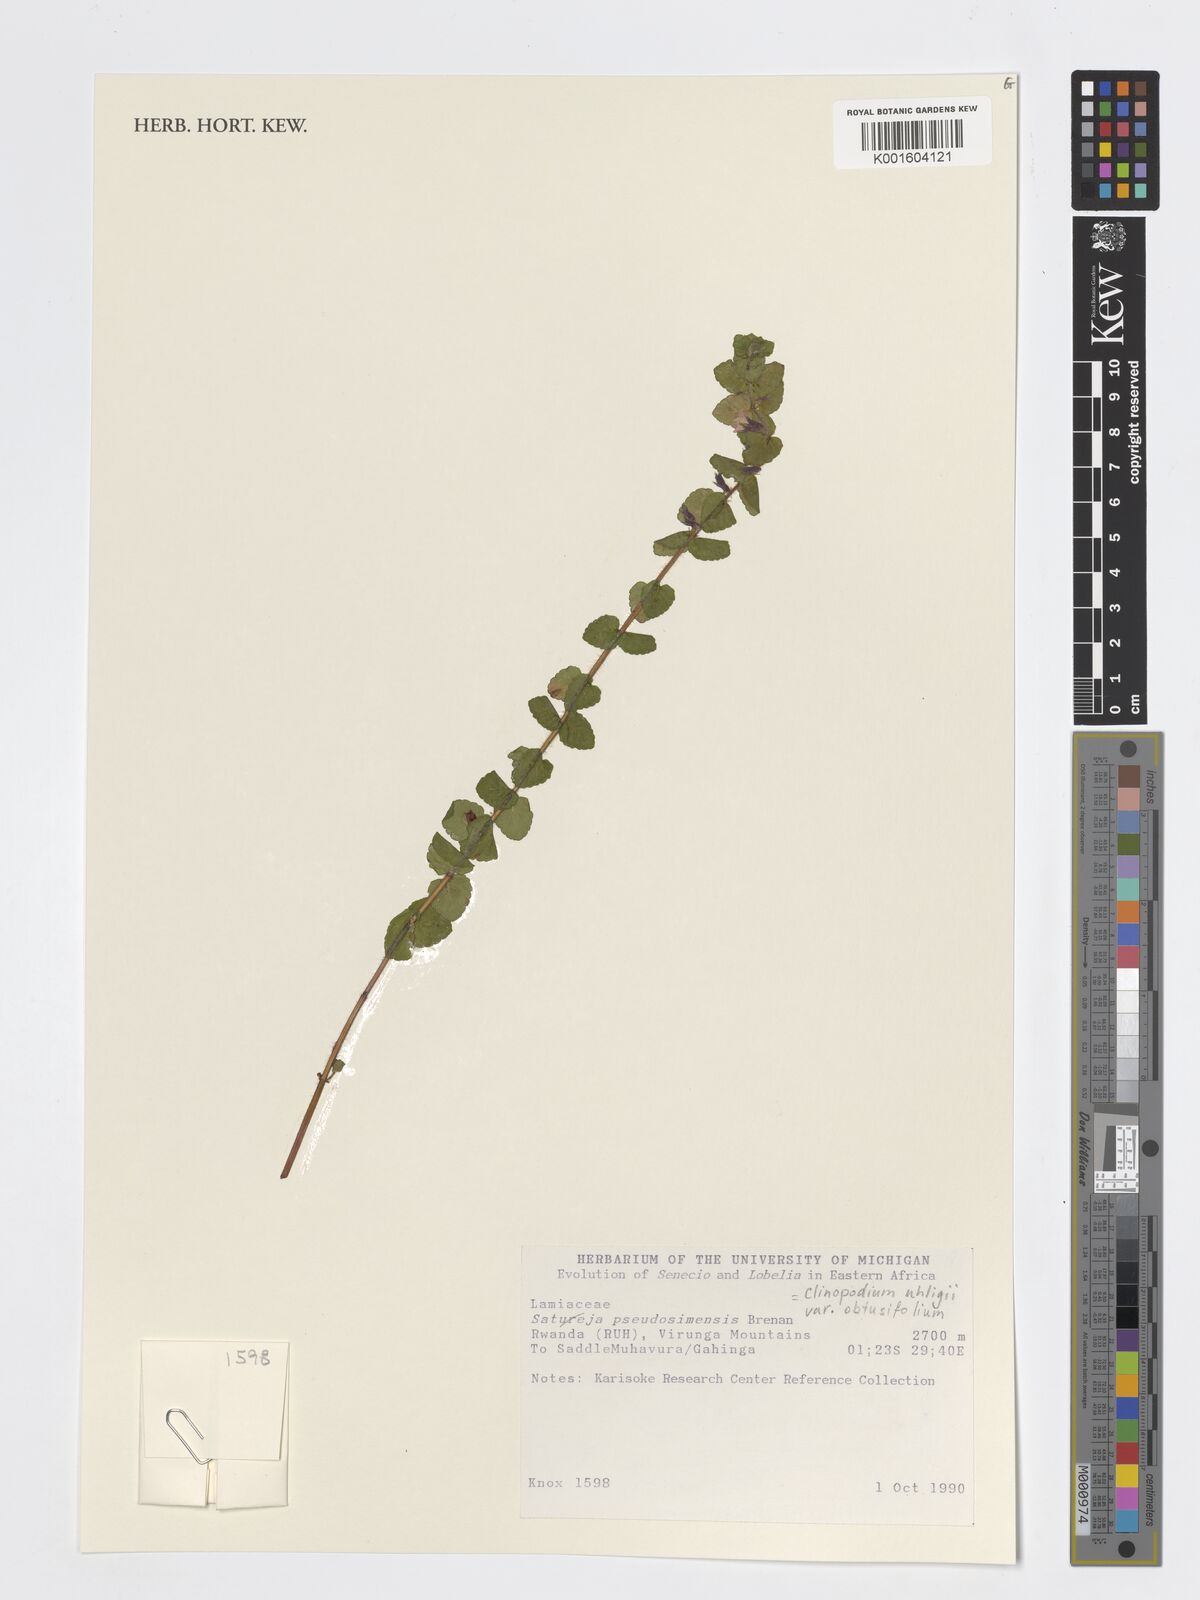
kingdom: Plantae
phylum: Tracheophyta
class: Magnoliopsida
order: Lamiales
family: Lamiaceae
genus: Clinopodium
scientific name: Clinopodium uhligii
